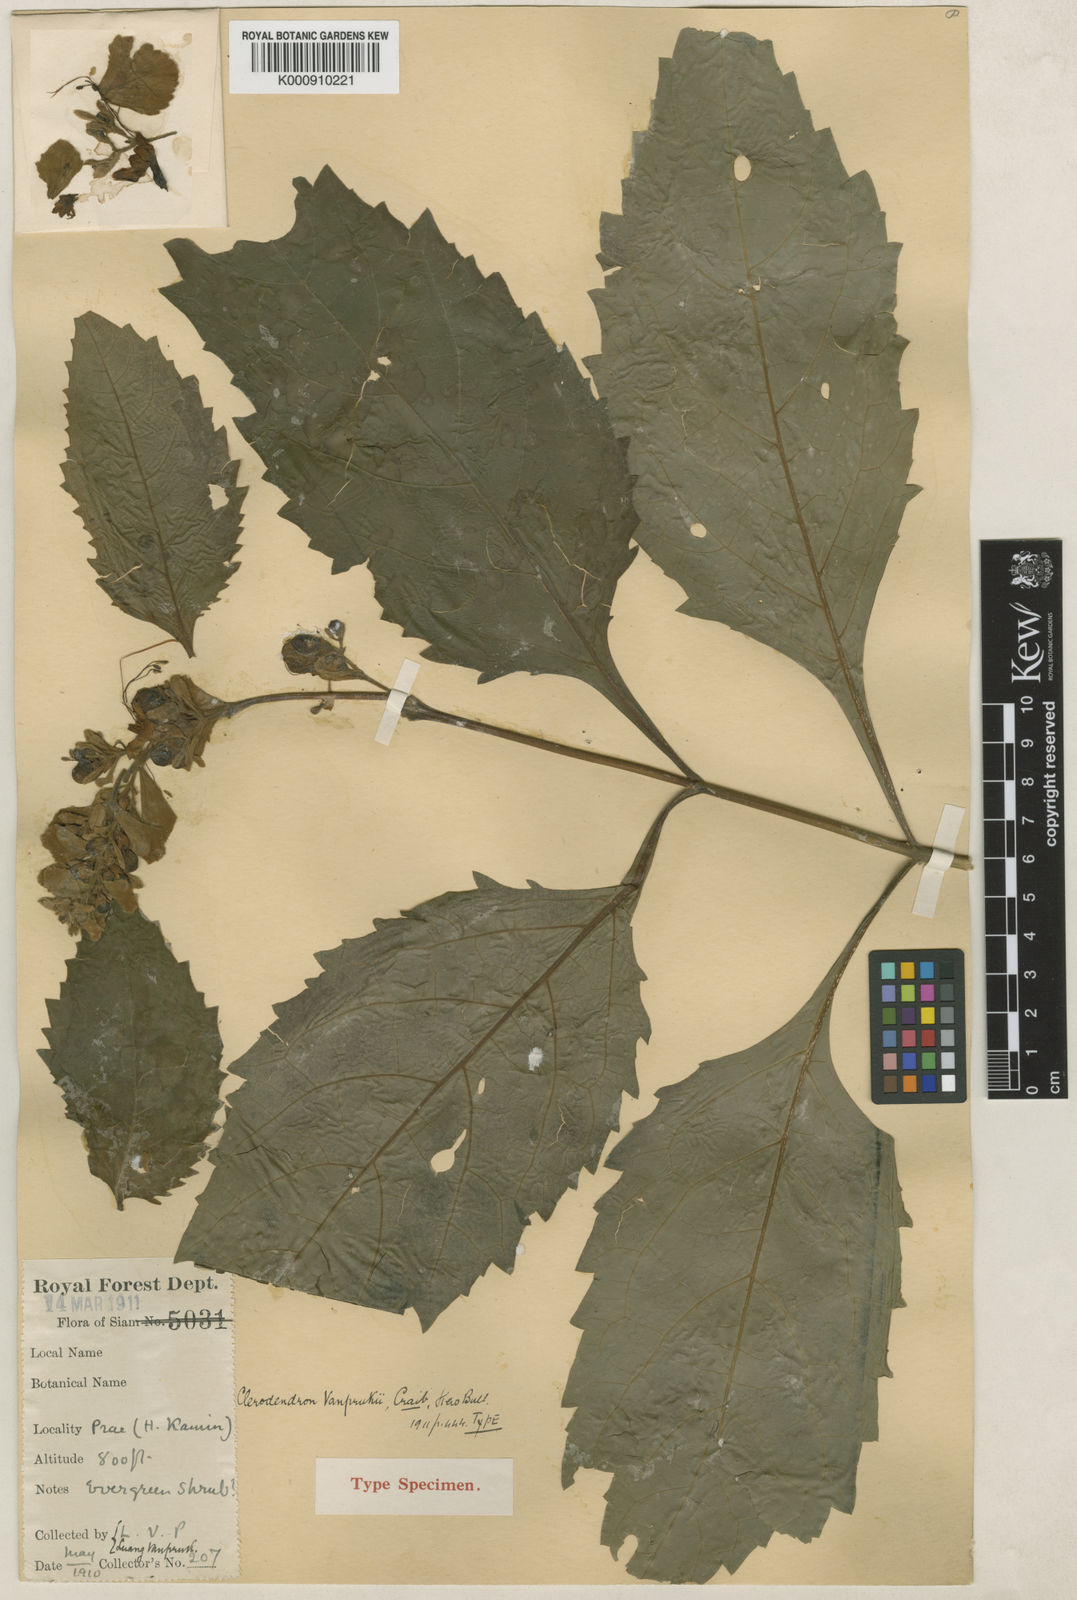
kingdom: Plantae
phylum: Tracheophyta
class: Magnoliopsida
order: Lamiales
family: Lamiaceae
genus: Rotheca
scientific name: Rotheca serrata
